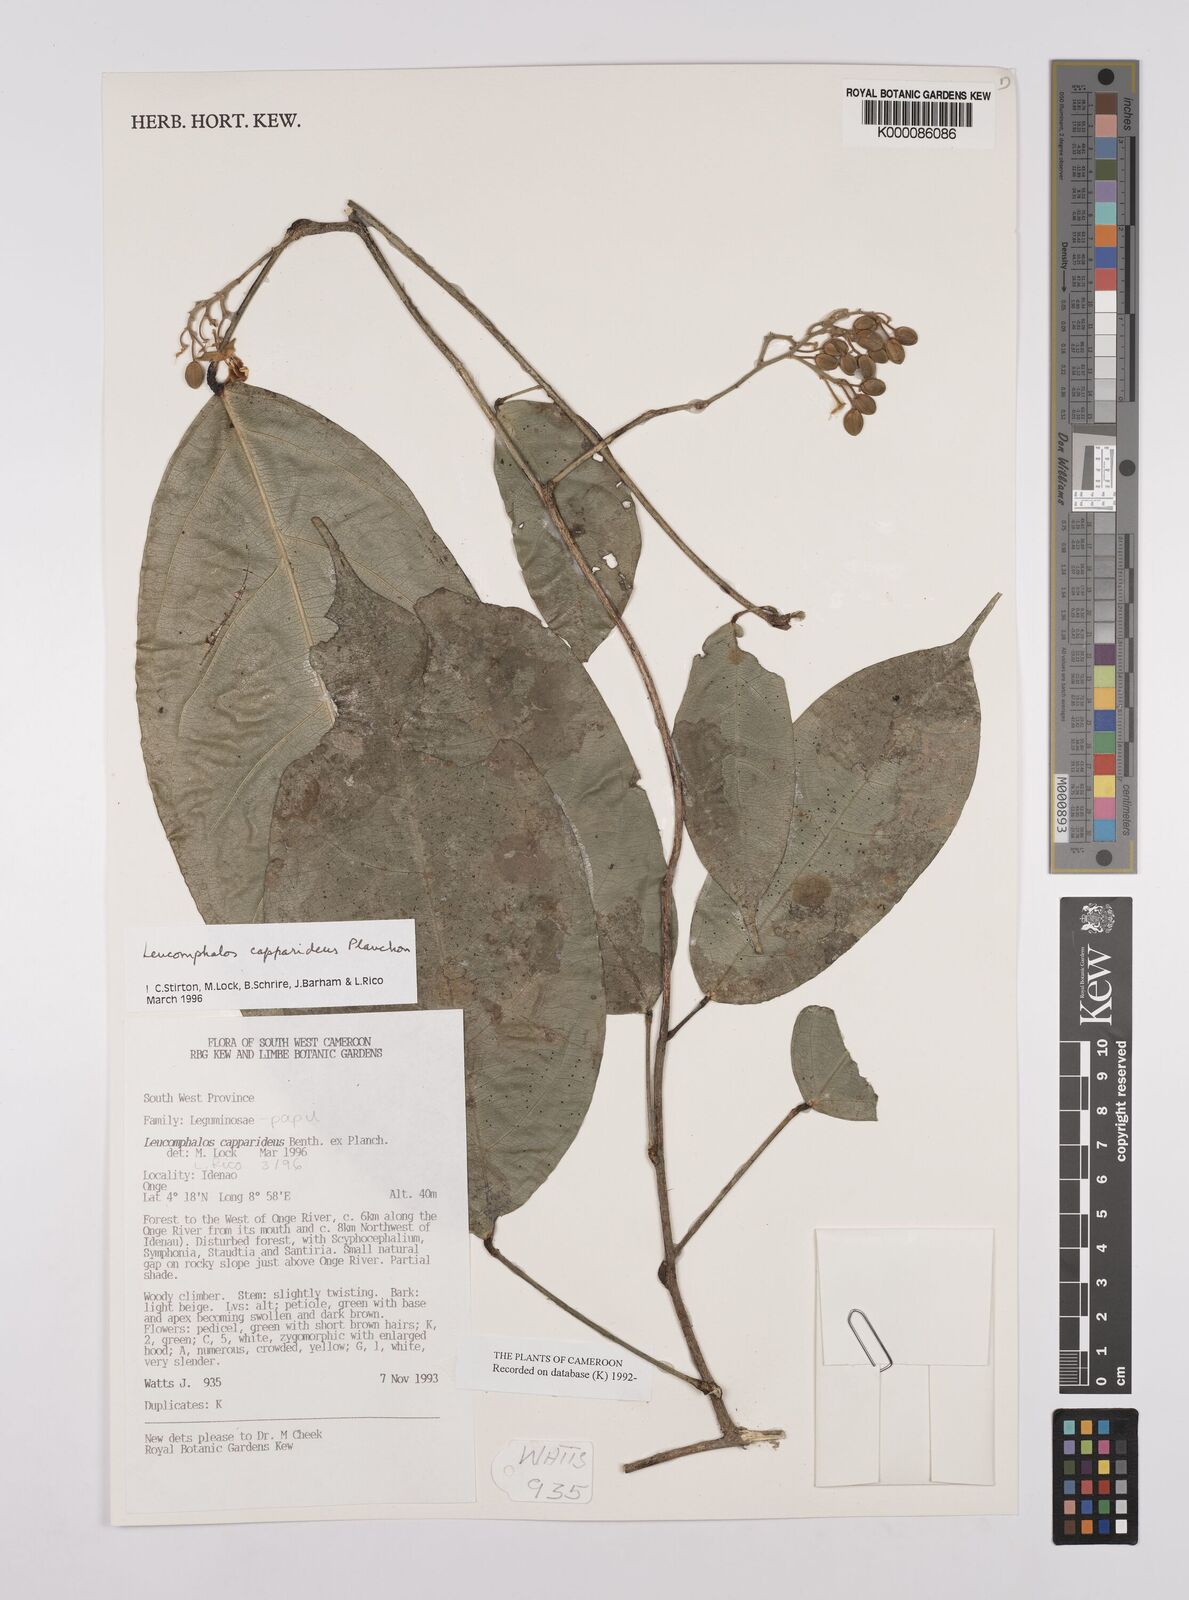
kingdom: Plantae
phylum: Tracheophyta
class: Magnoliopsida
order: Fabales
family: Fabaceae
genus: Leucomphalos
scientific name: Leucomphalos
